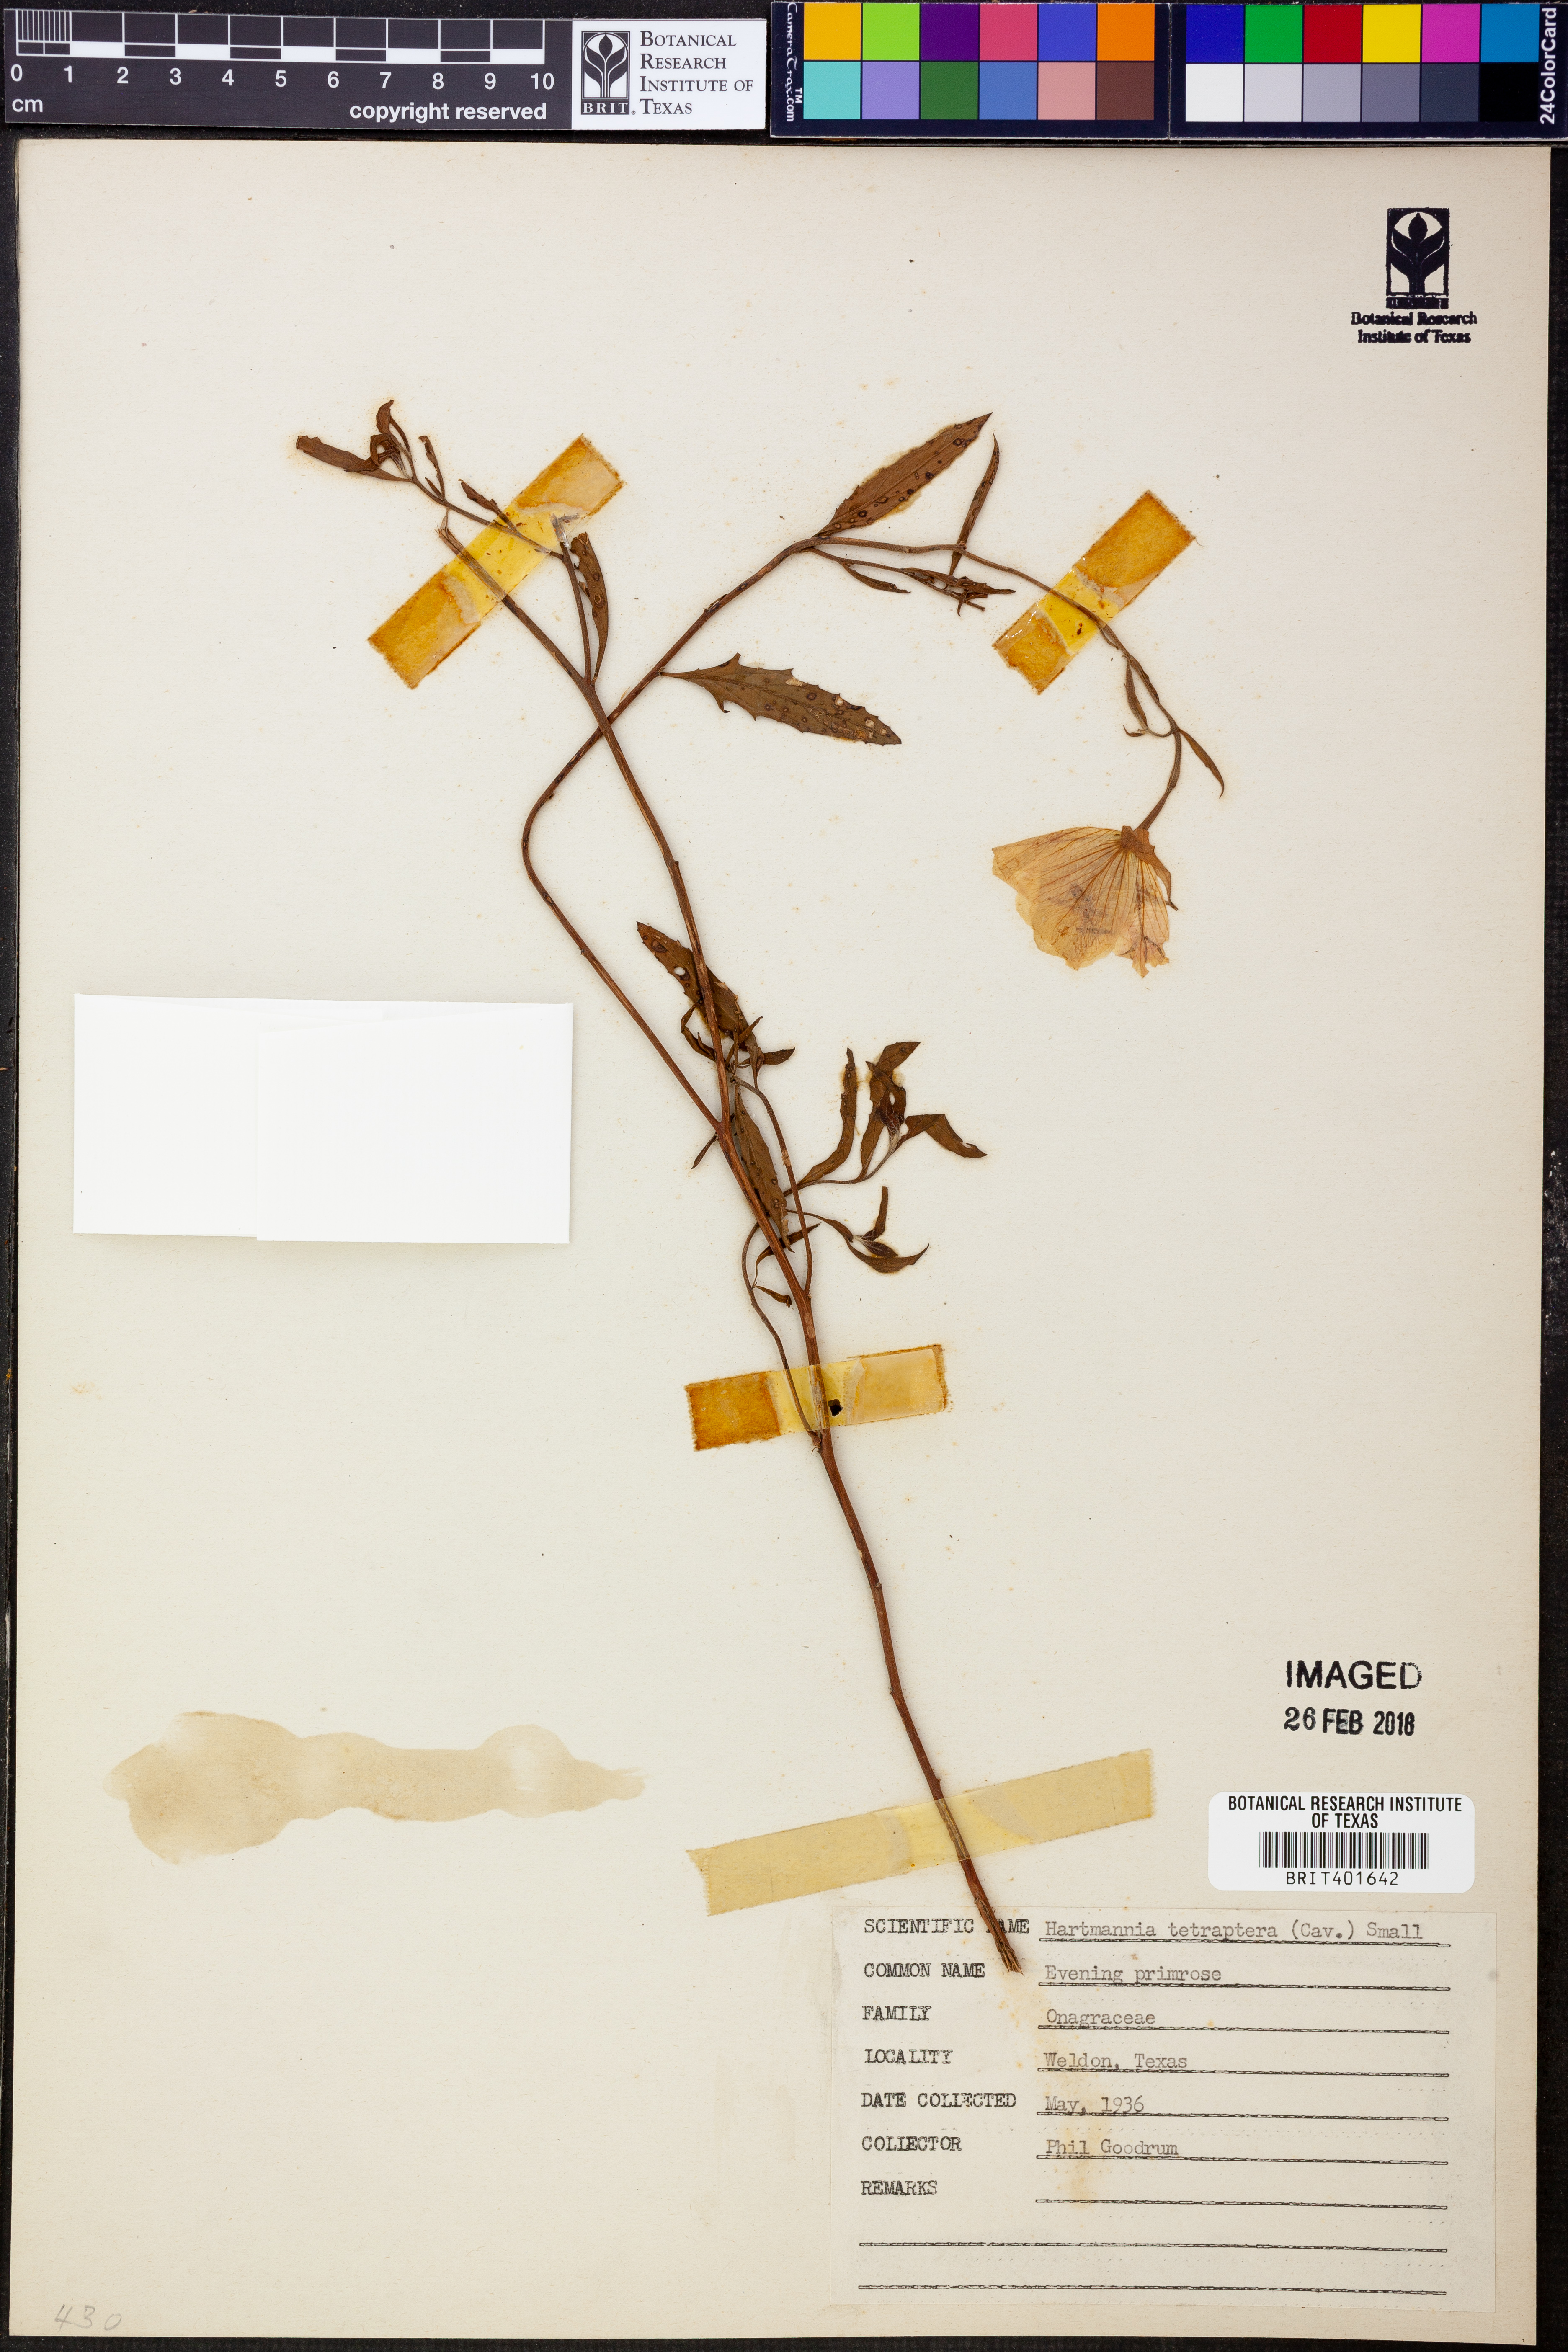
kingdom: Plantae
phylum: Tracheophyta
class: Magnoliopsida
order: Myrtales
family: Onagraceae
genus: Oenothera
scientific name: Oenothera tetraptera
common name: Four-wing evening-primrose
